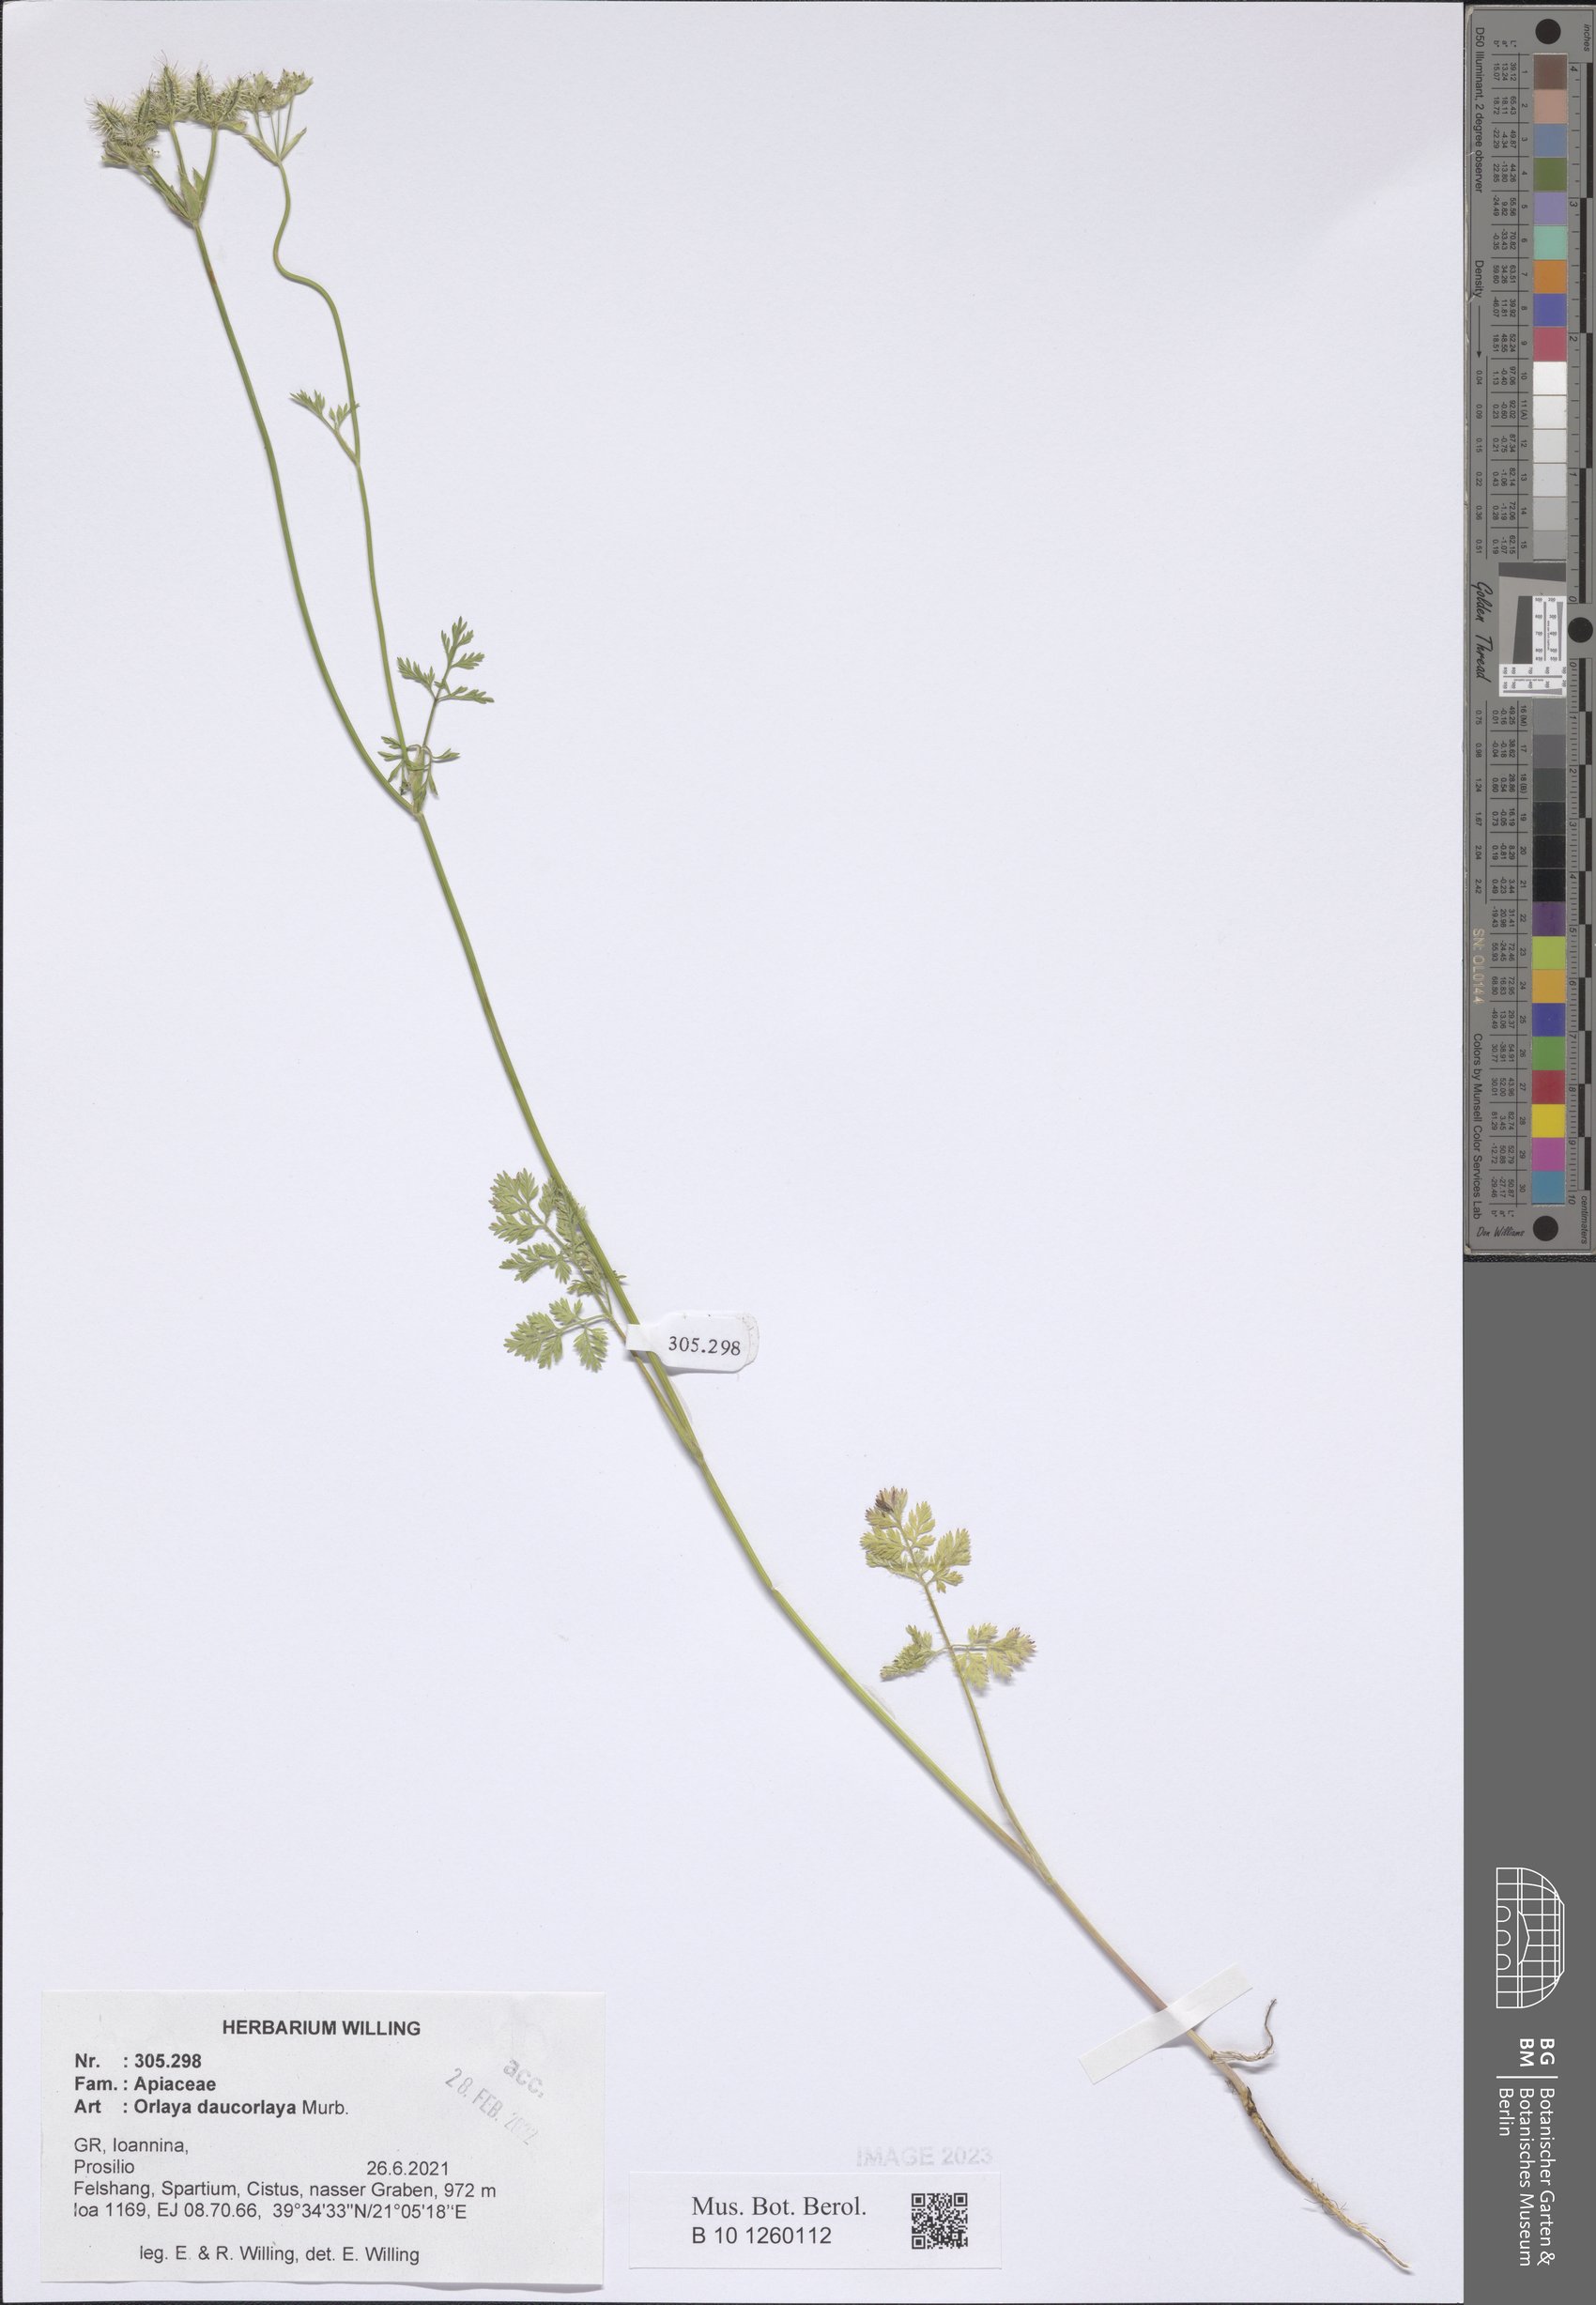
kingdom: Plantae
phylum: Tracheophyta
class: Magnoliopsida
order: Apiales
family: Apiaceae
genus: Orlaya
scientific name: Orlaya daucorlaya
